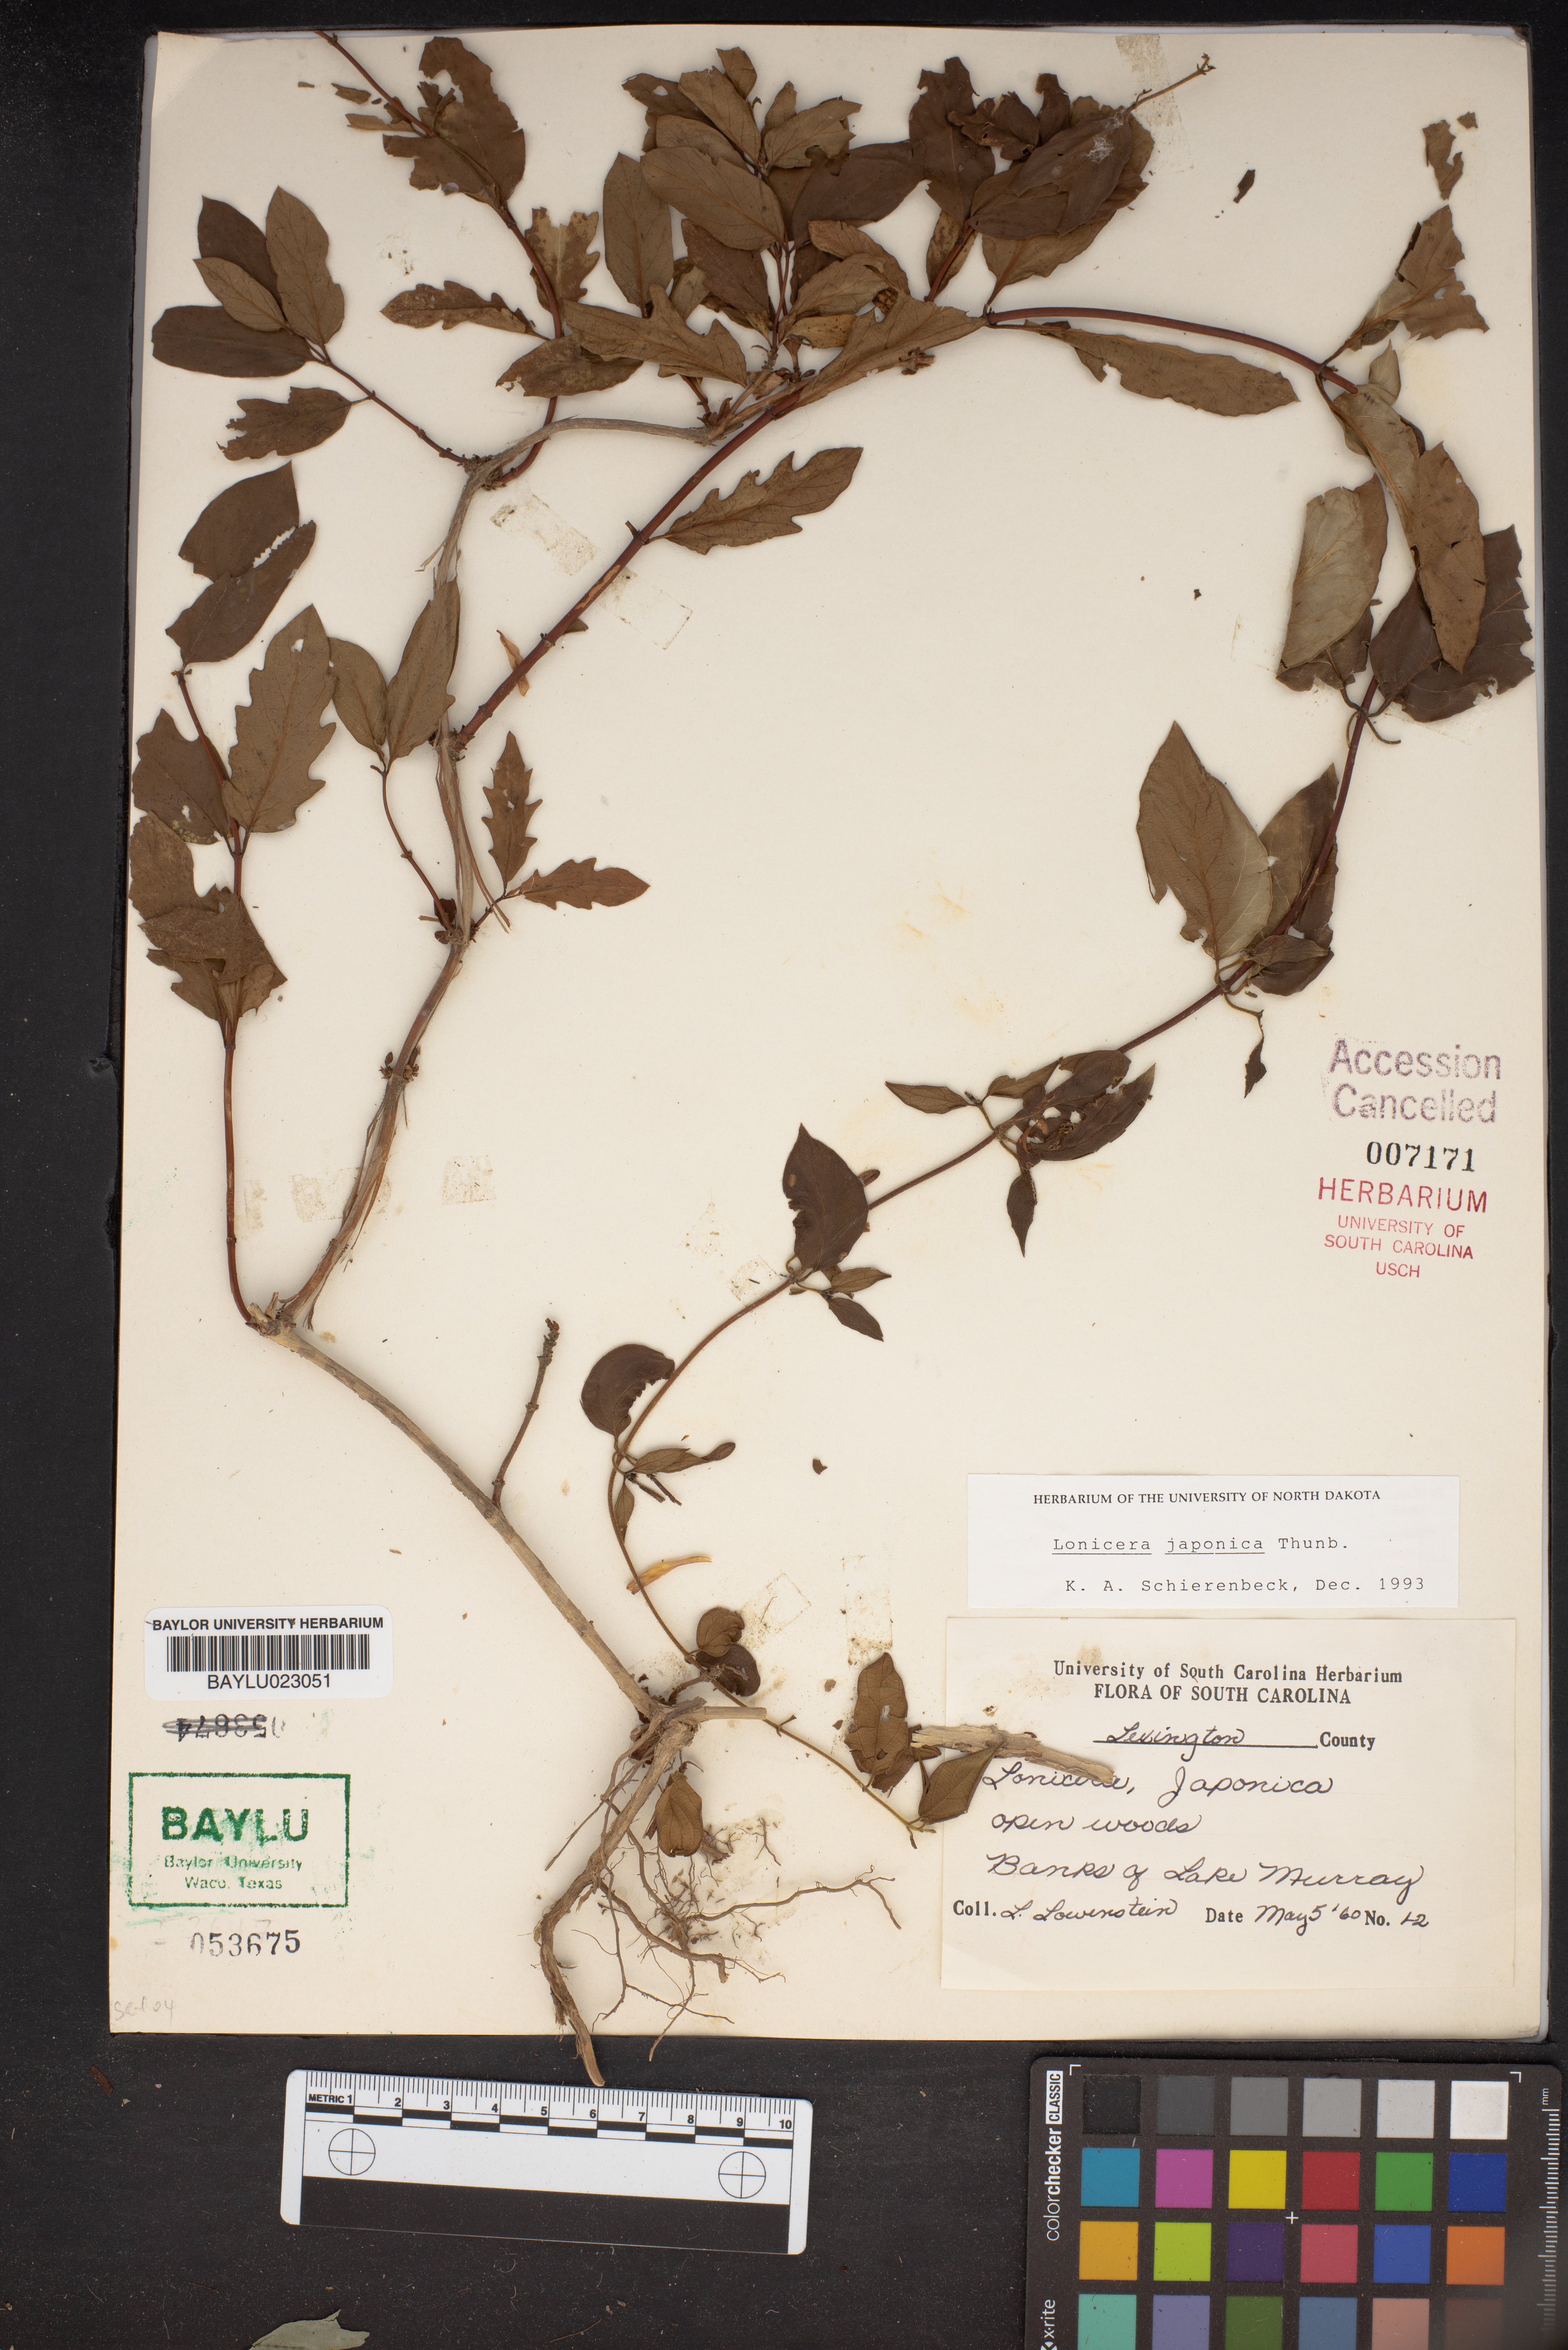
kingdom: Plantae
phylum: Tracheophyta
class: Magnoliopsida
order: Dipsacales
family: Caprifoliaceae
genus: Lonicera
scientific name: Lonicera japonica
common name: Japanese honeysuckle
